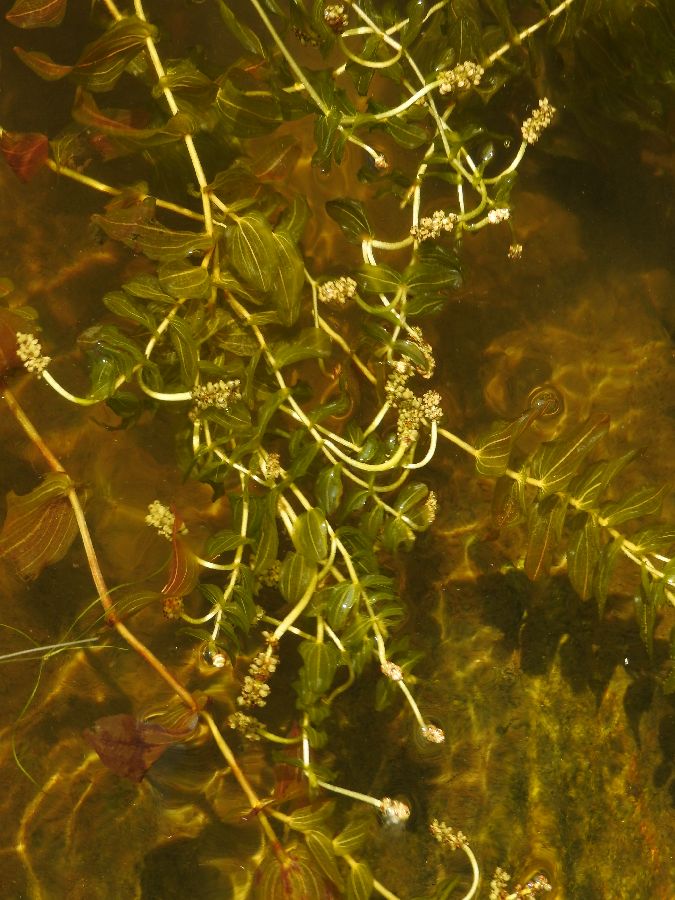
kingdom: Plantae
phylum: Tracheophyta
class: Liliopsida
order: Alismatales
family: Potamogetonaceae
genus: Potamogeton
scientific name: Potamogeton perfoliatus
